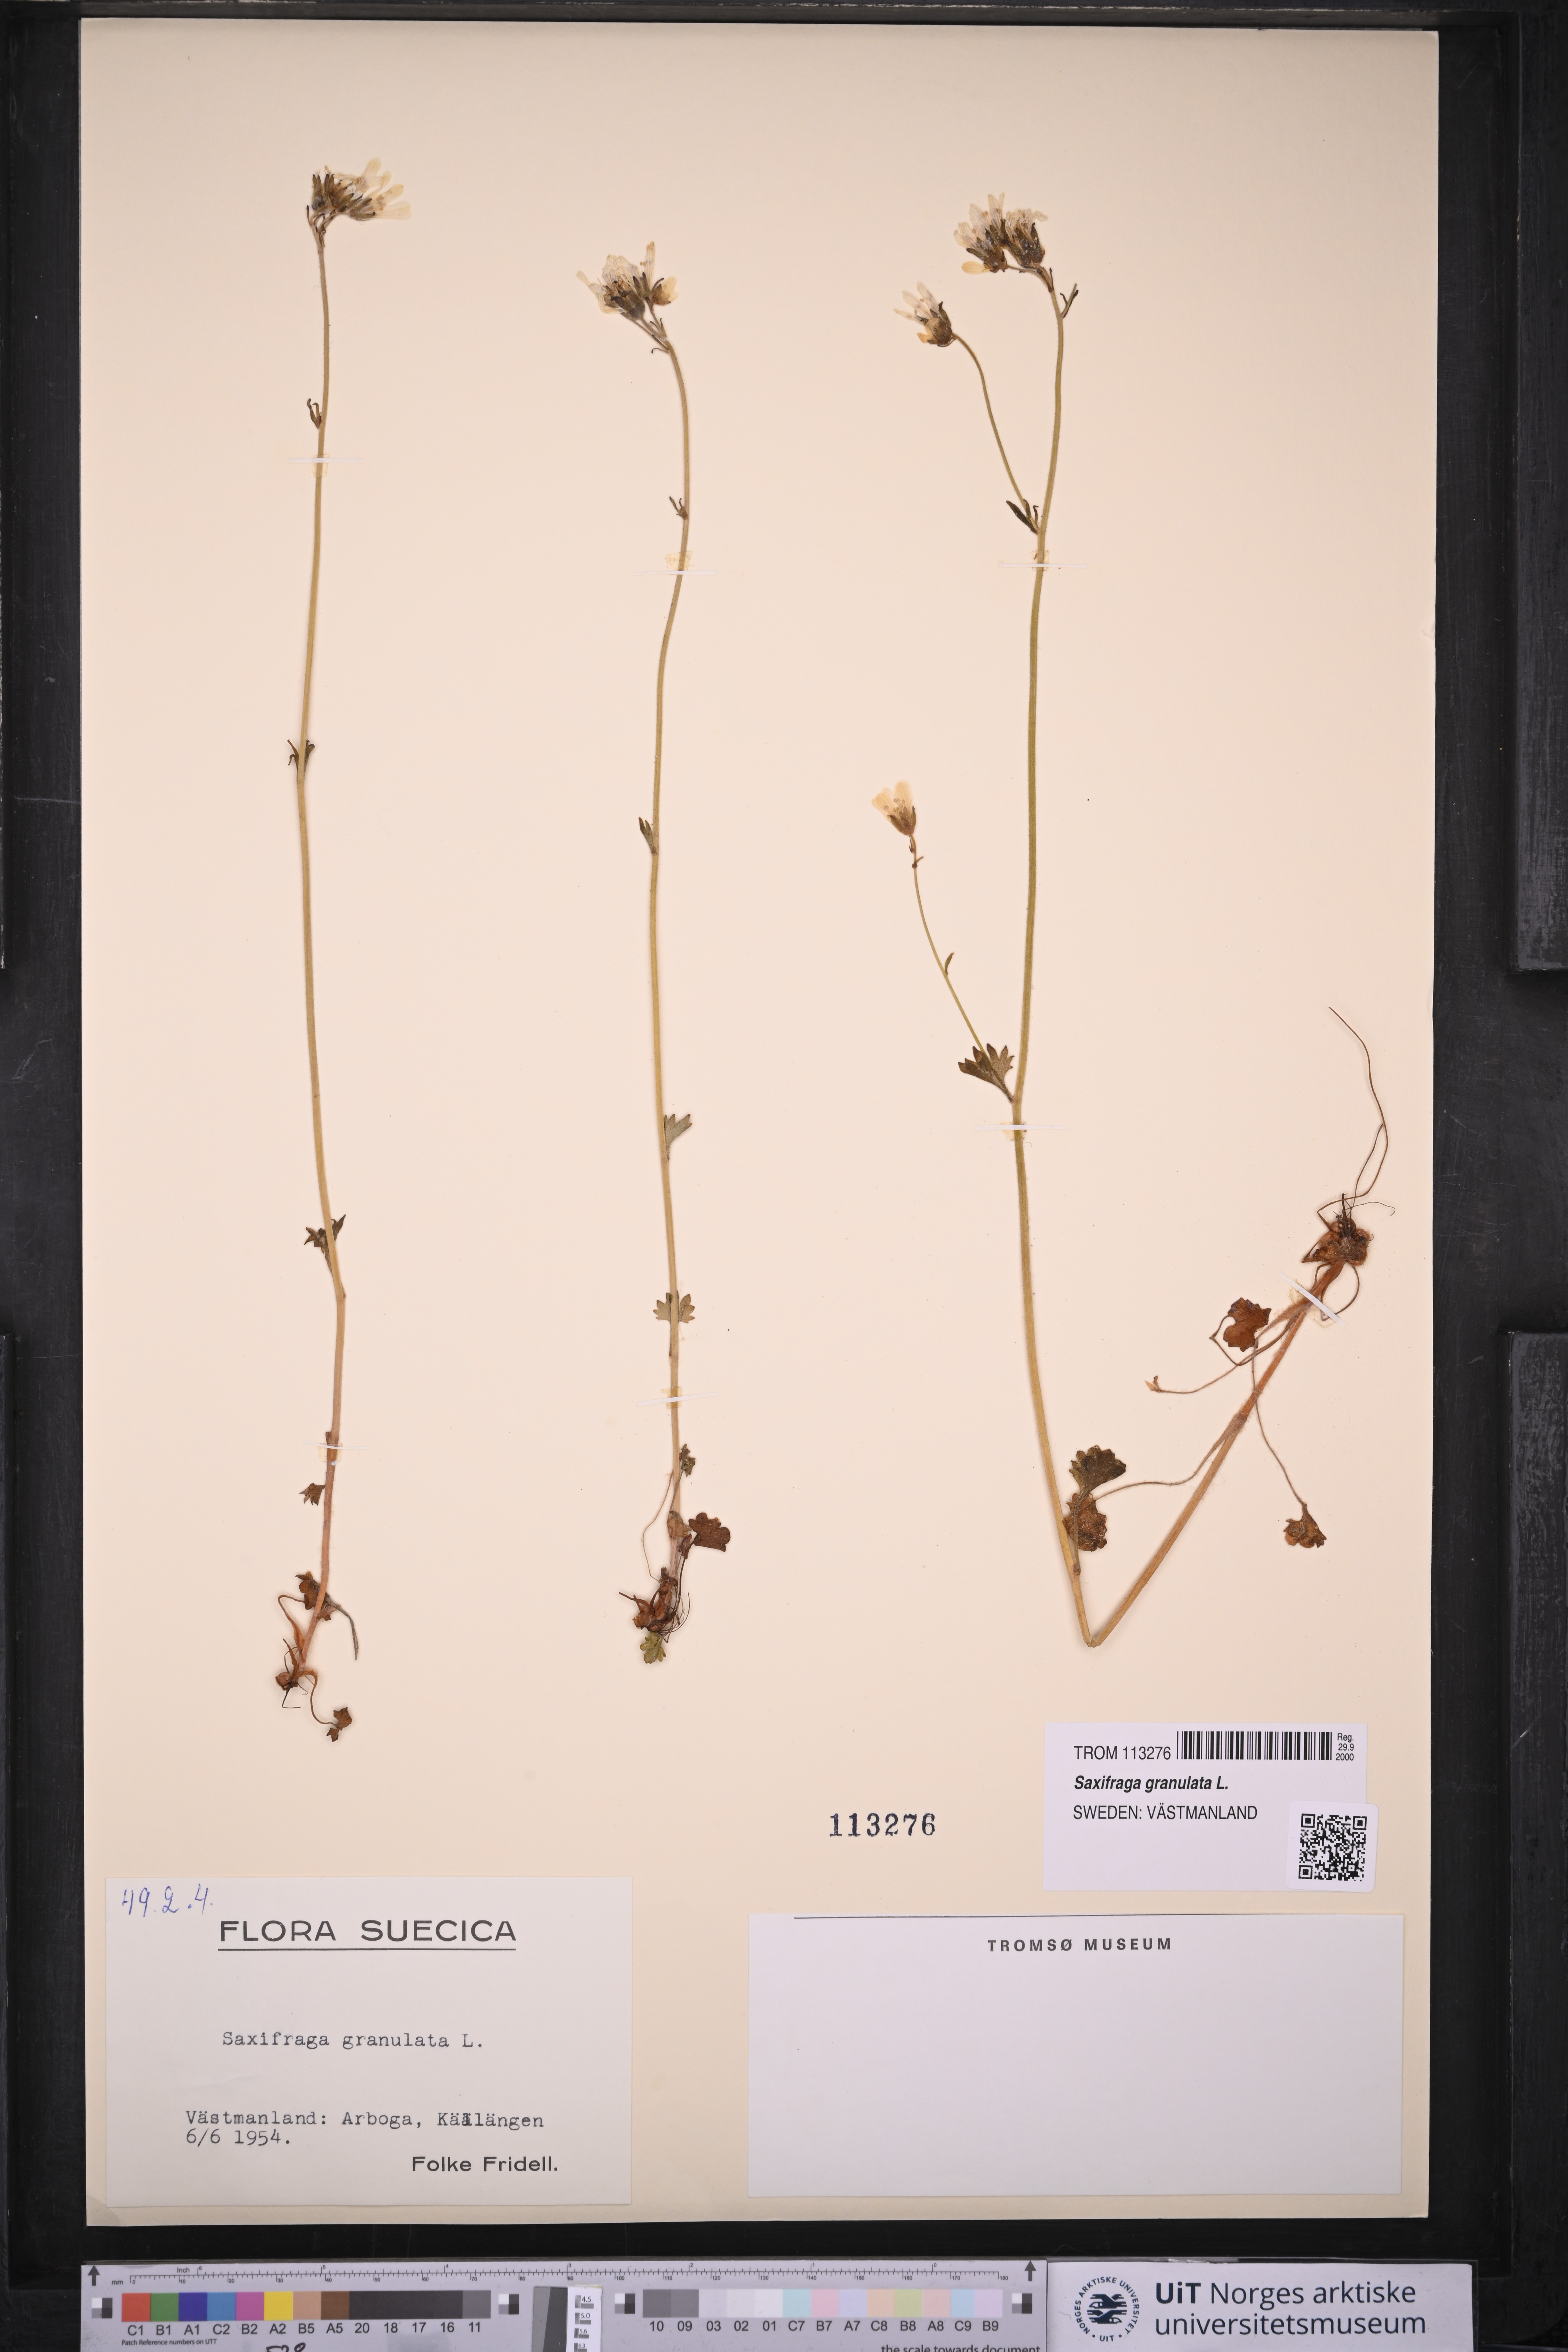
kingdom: Plantae
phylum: Tracheophyta
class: Magnoliopsida
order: Saxifragales
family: Saxifragaceae
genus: Saxifraga
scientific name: Saxifraga granulata
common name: Meadow saxifrage
